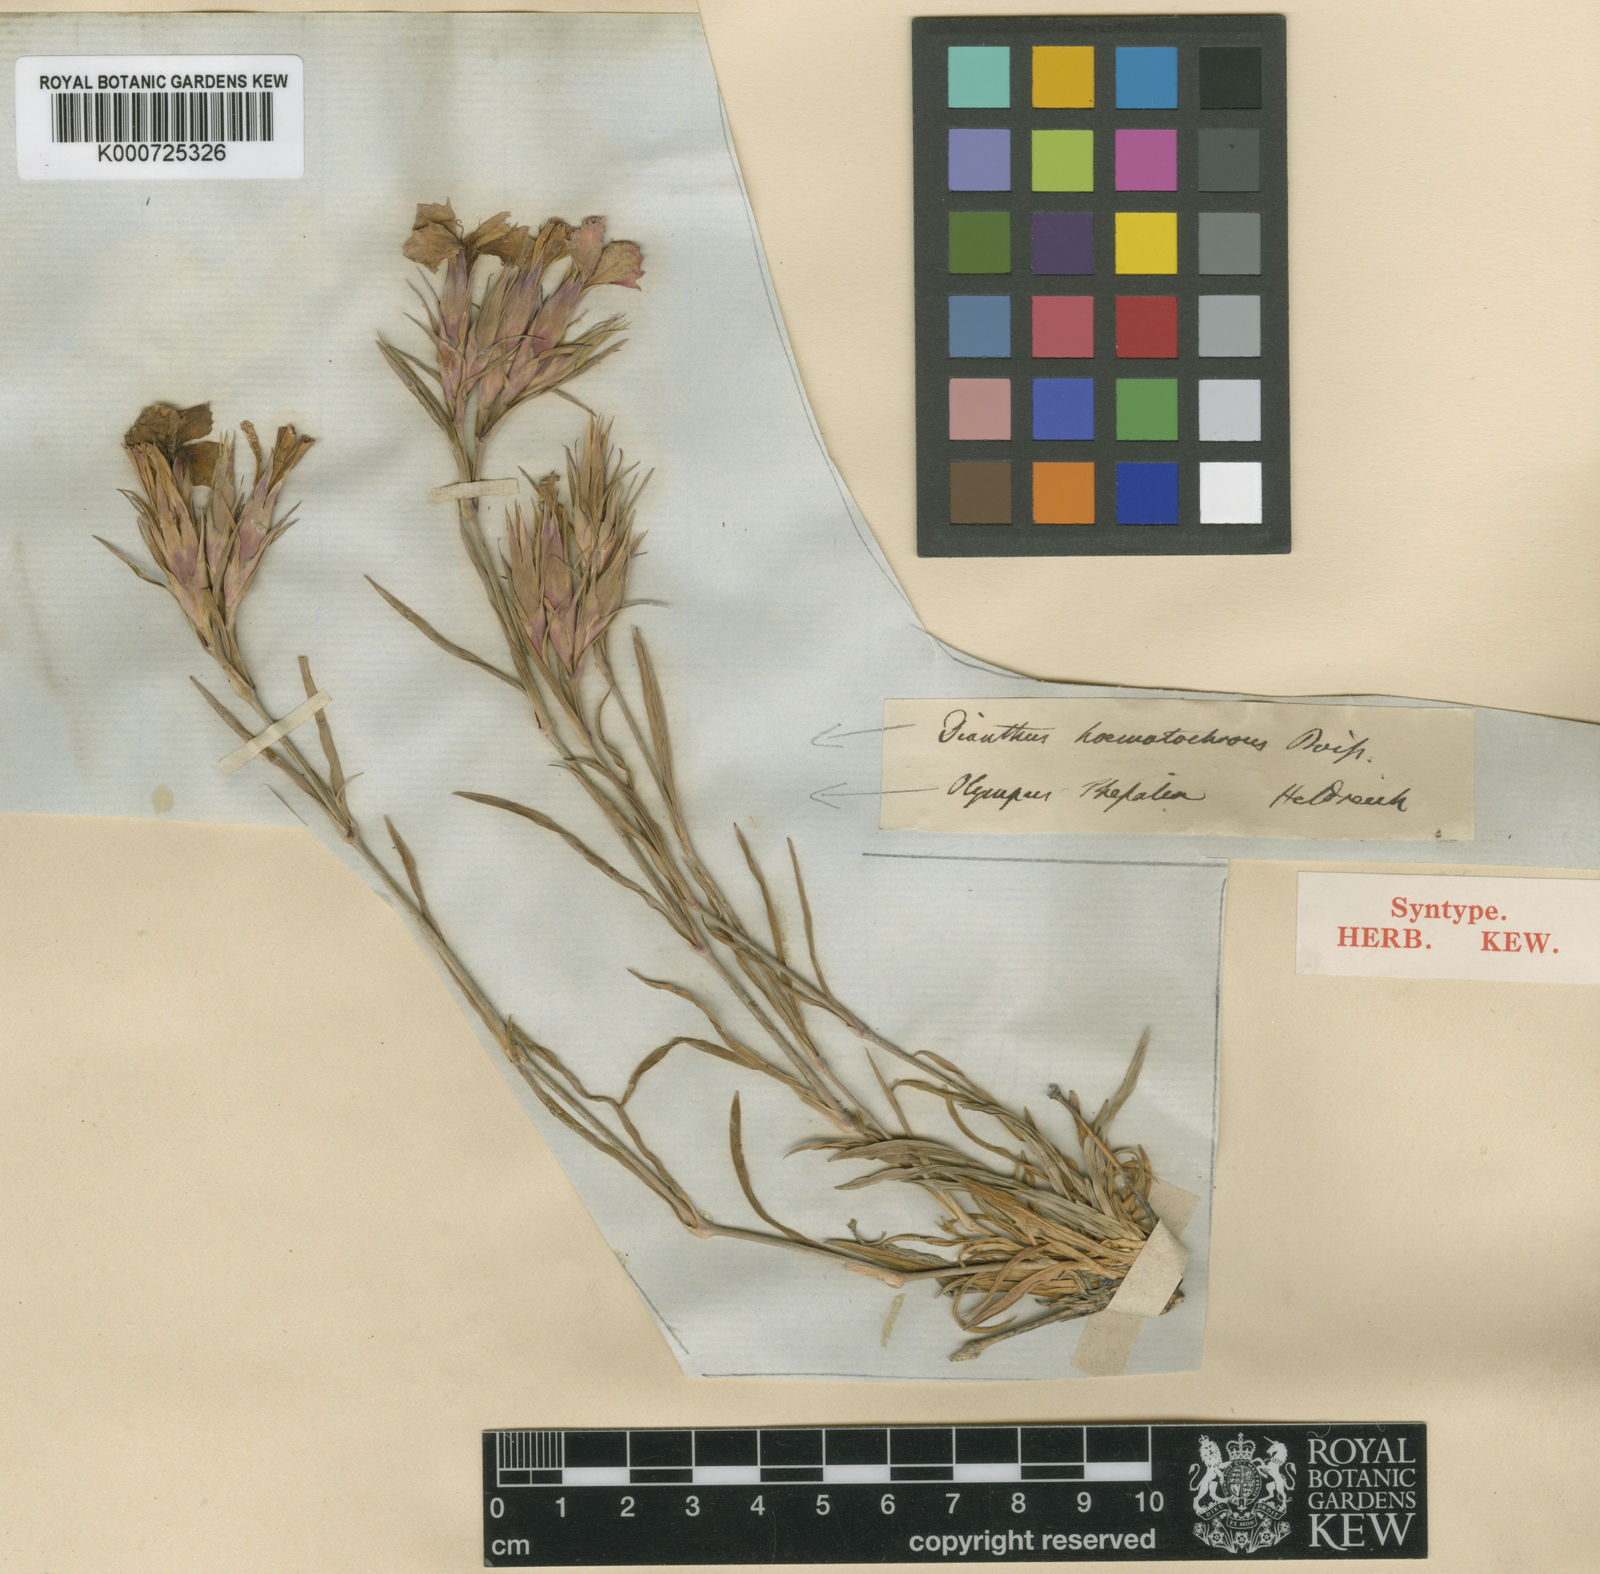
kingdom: Plantae
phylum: Tracheophyta
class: Magnoliopsida
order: Caryophyllales
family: Caryophyllaceae
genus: Dianthus
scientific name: Dianthus haematocalyx
